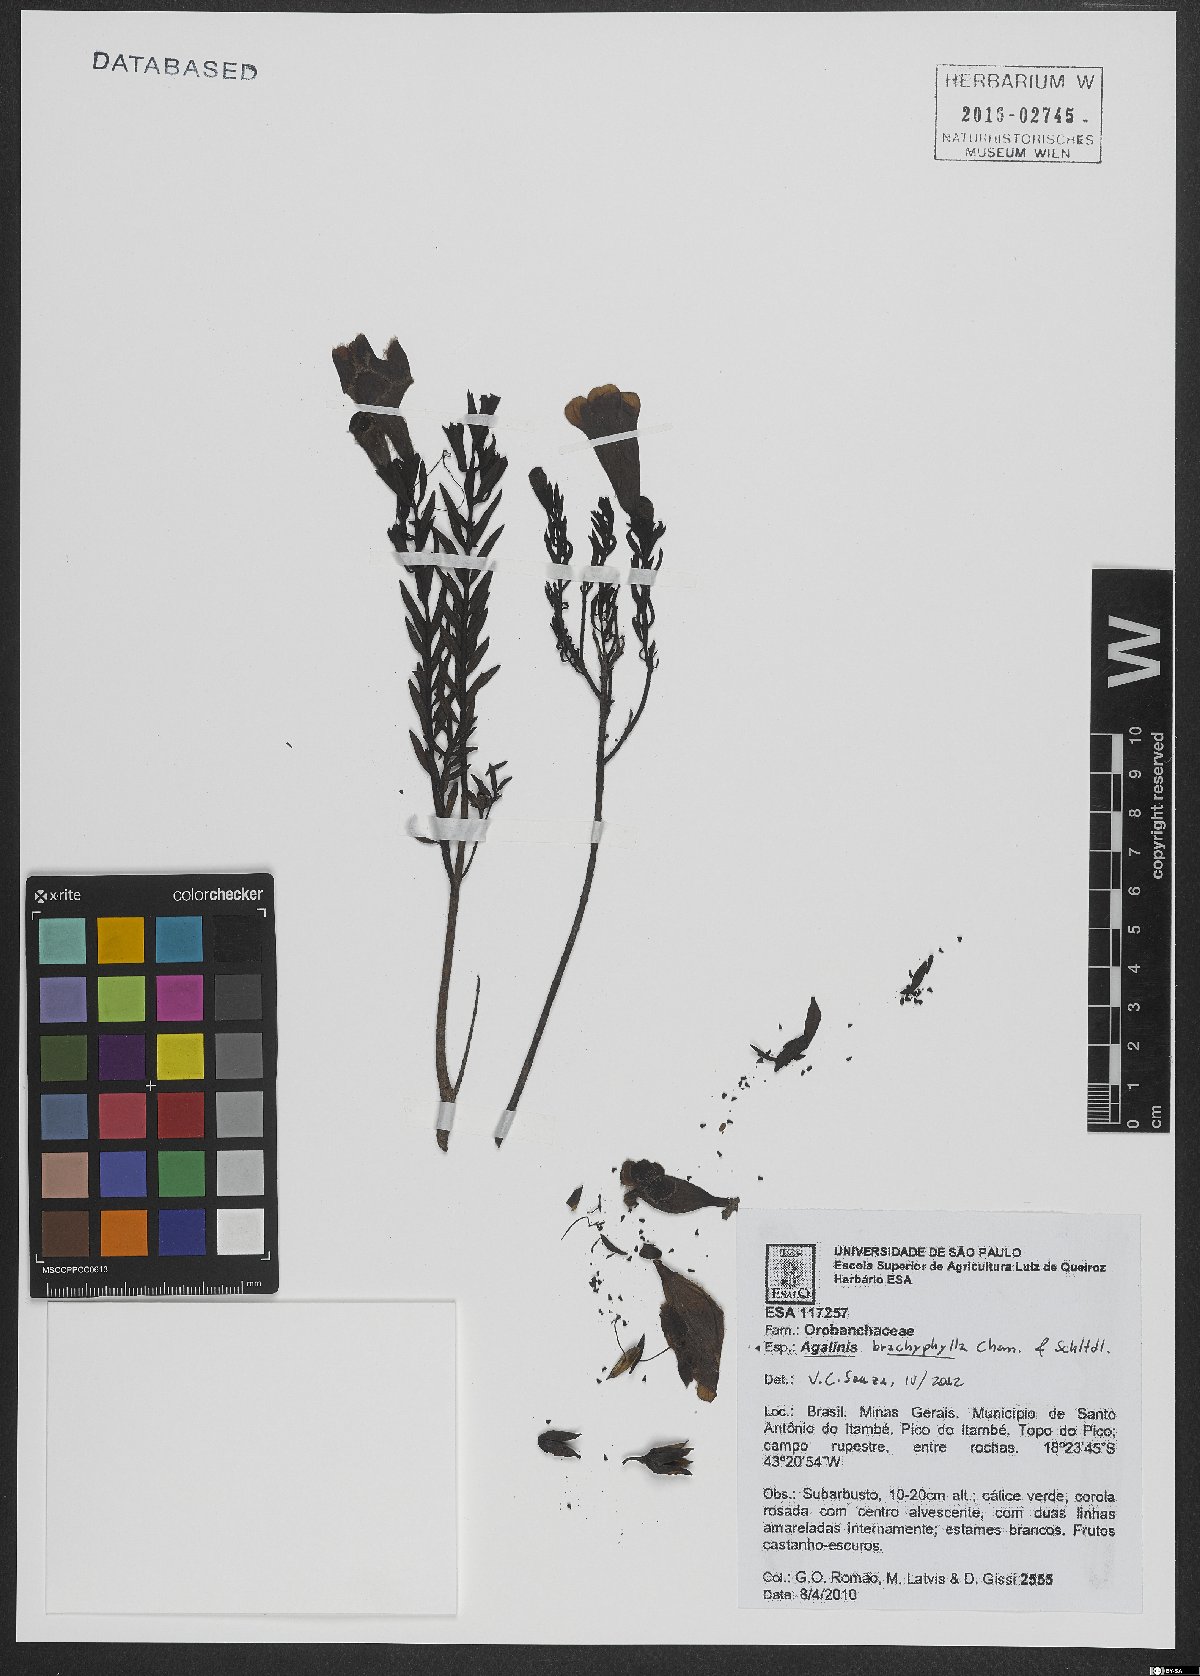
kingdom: Plantae
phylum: Tracheophyta
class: Magnoliopsida
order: Lamiales
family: Scrophulariaceae
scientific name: Scrophulariaceae
